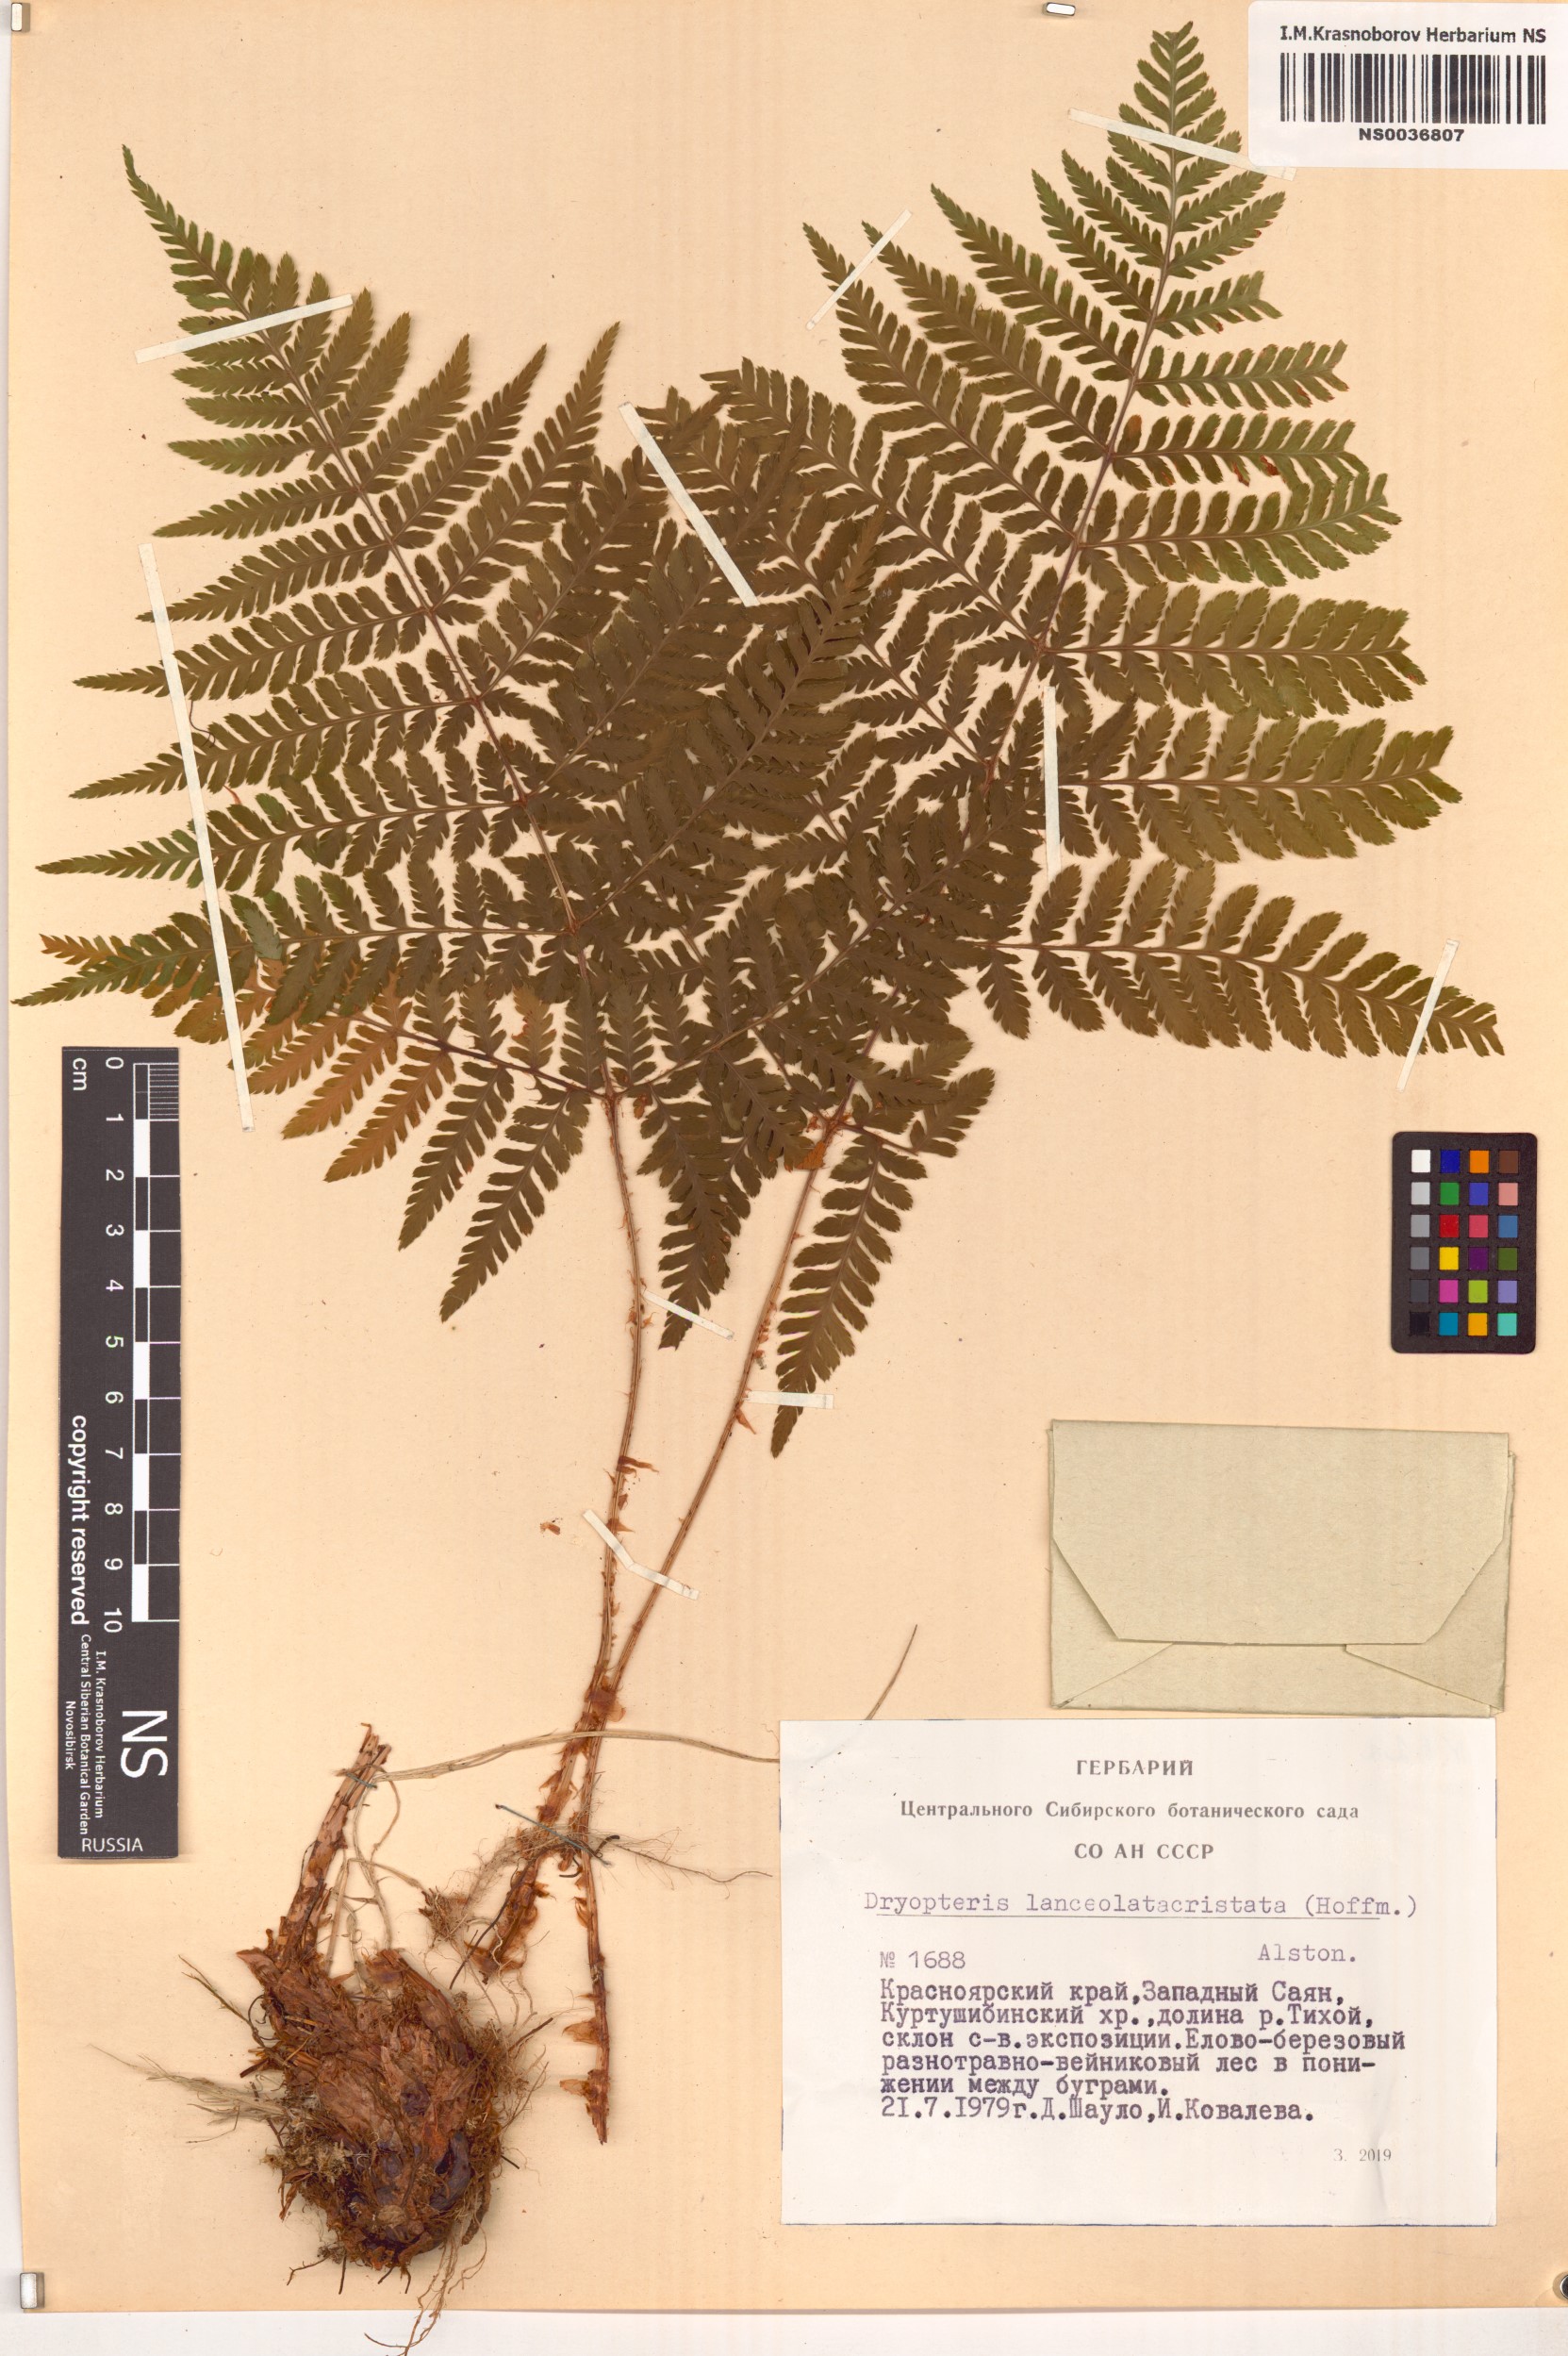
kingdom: Plantae
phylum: Tracheophyta
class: Polypodiopsida
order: Polypodiales
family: Dryopteridaceae
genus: Dryopteris
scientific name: Dryopteris carthusiana
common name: Narrow buckler-fern
